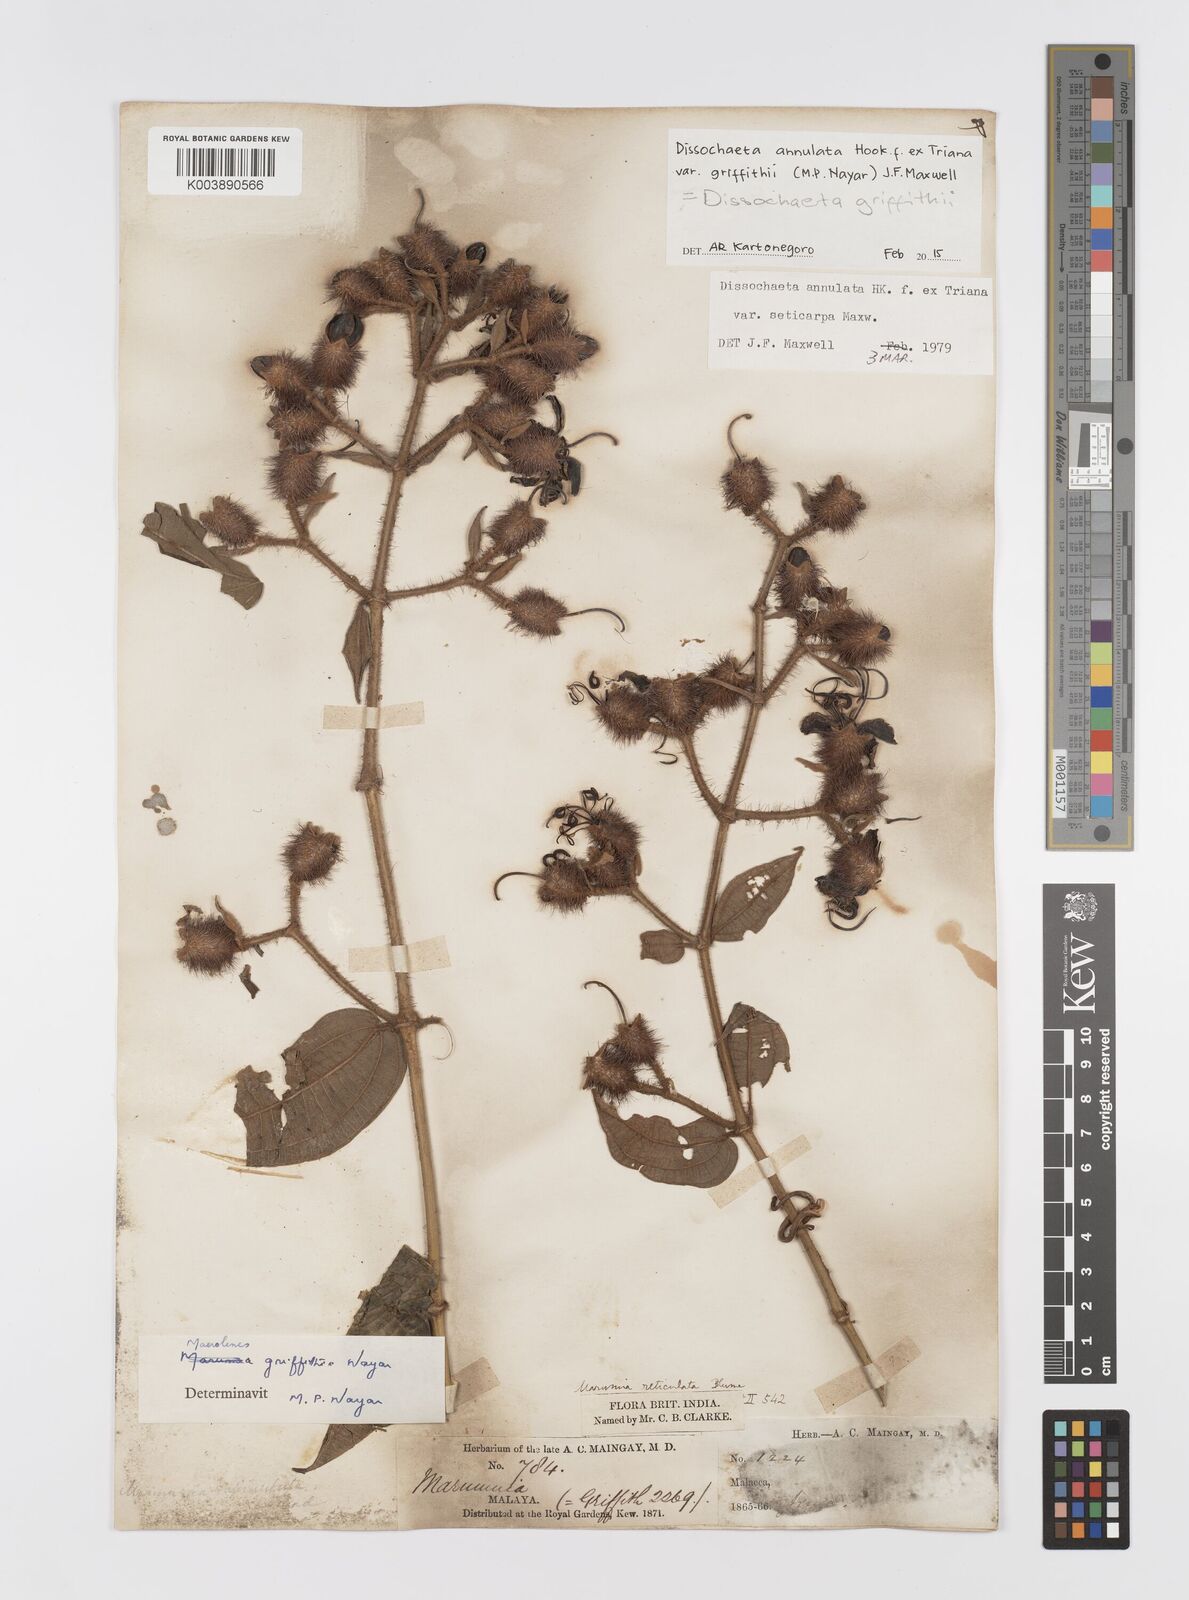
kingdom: Plantae
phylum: Tracheophyta
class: Magnoliopsida
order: Myrtales
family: Melastomataceae
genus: Dissochaeta
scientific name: Dissochaeta griffithii
